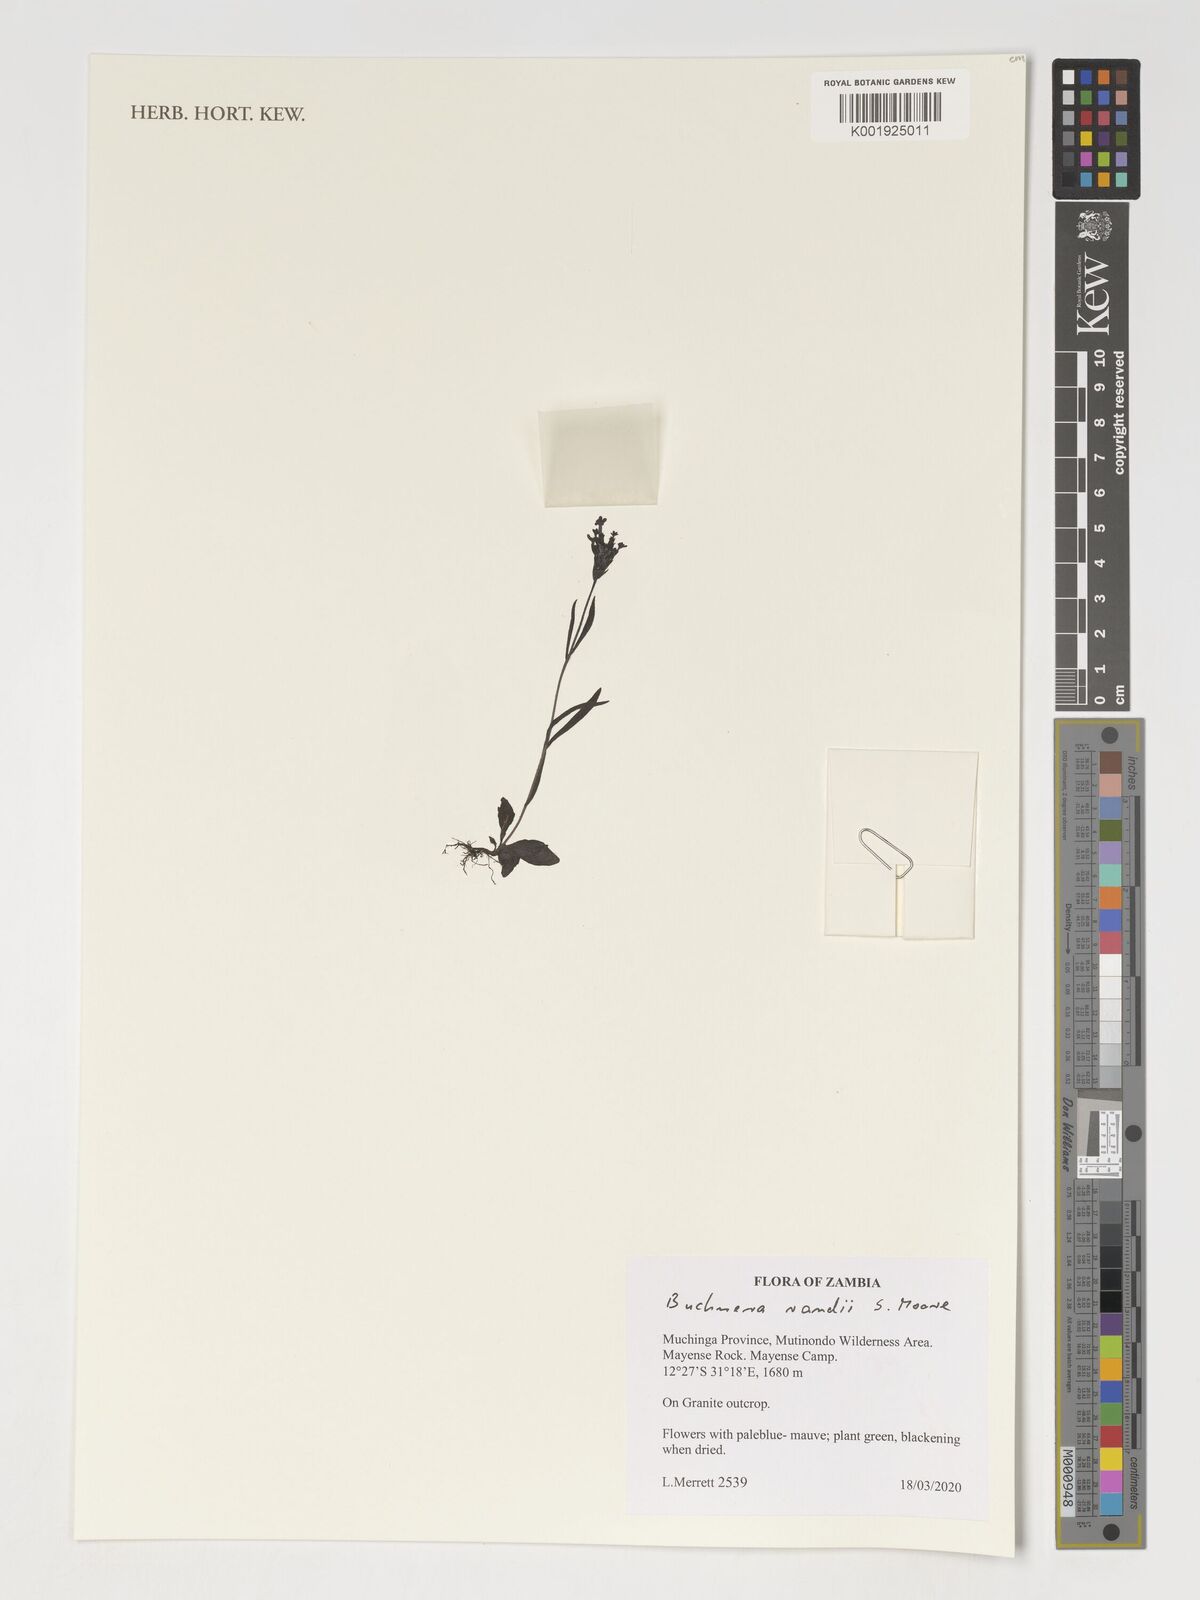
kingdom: Plantae
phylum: Tracheophyta
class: Magnoliopsida
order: Lamiales
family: Orobanchaceae
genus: Buchnera
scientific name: Buchnera randii
